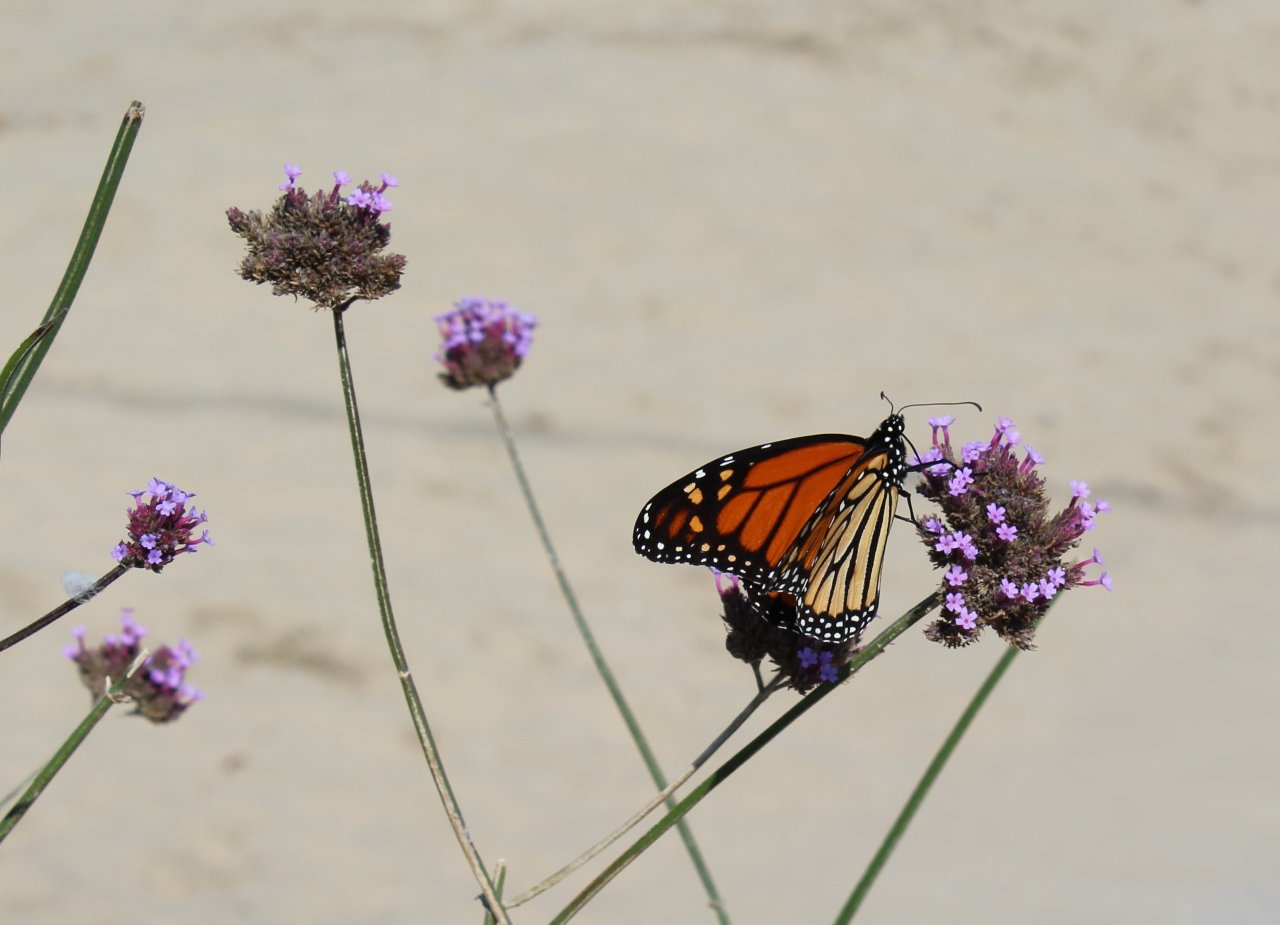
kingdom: Animalia
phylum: Arthropoda
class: Insecta
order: Lepidoptera
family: Nymphalidae
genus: Danaus
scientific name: Danaus plexippus
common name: Monarch
